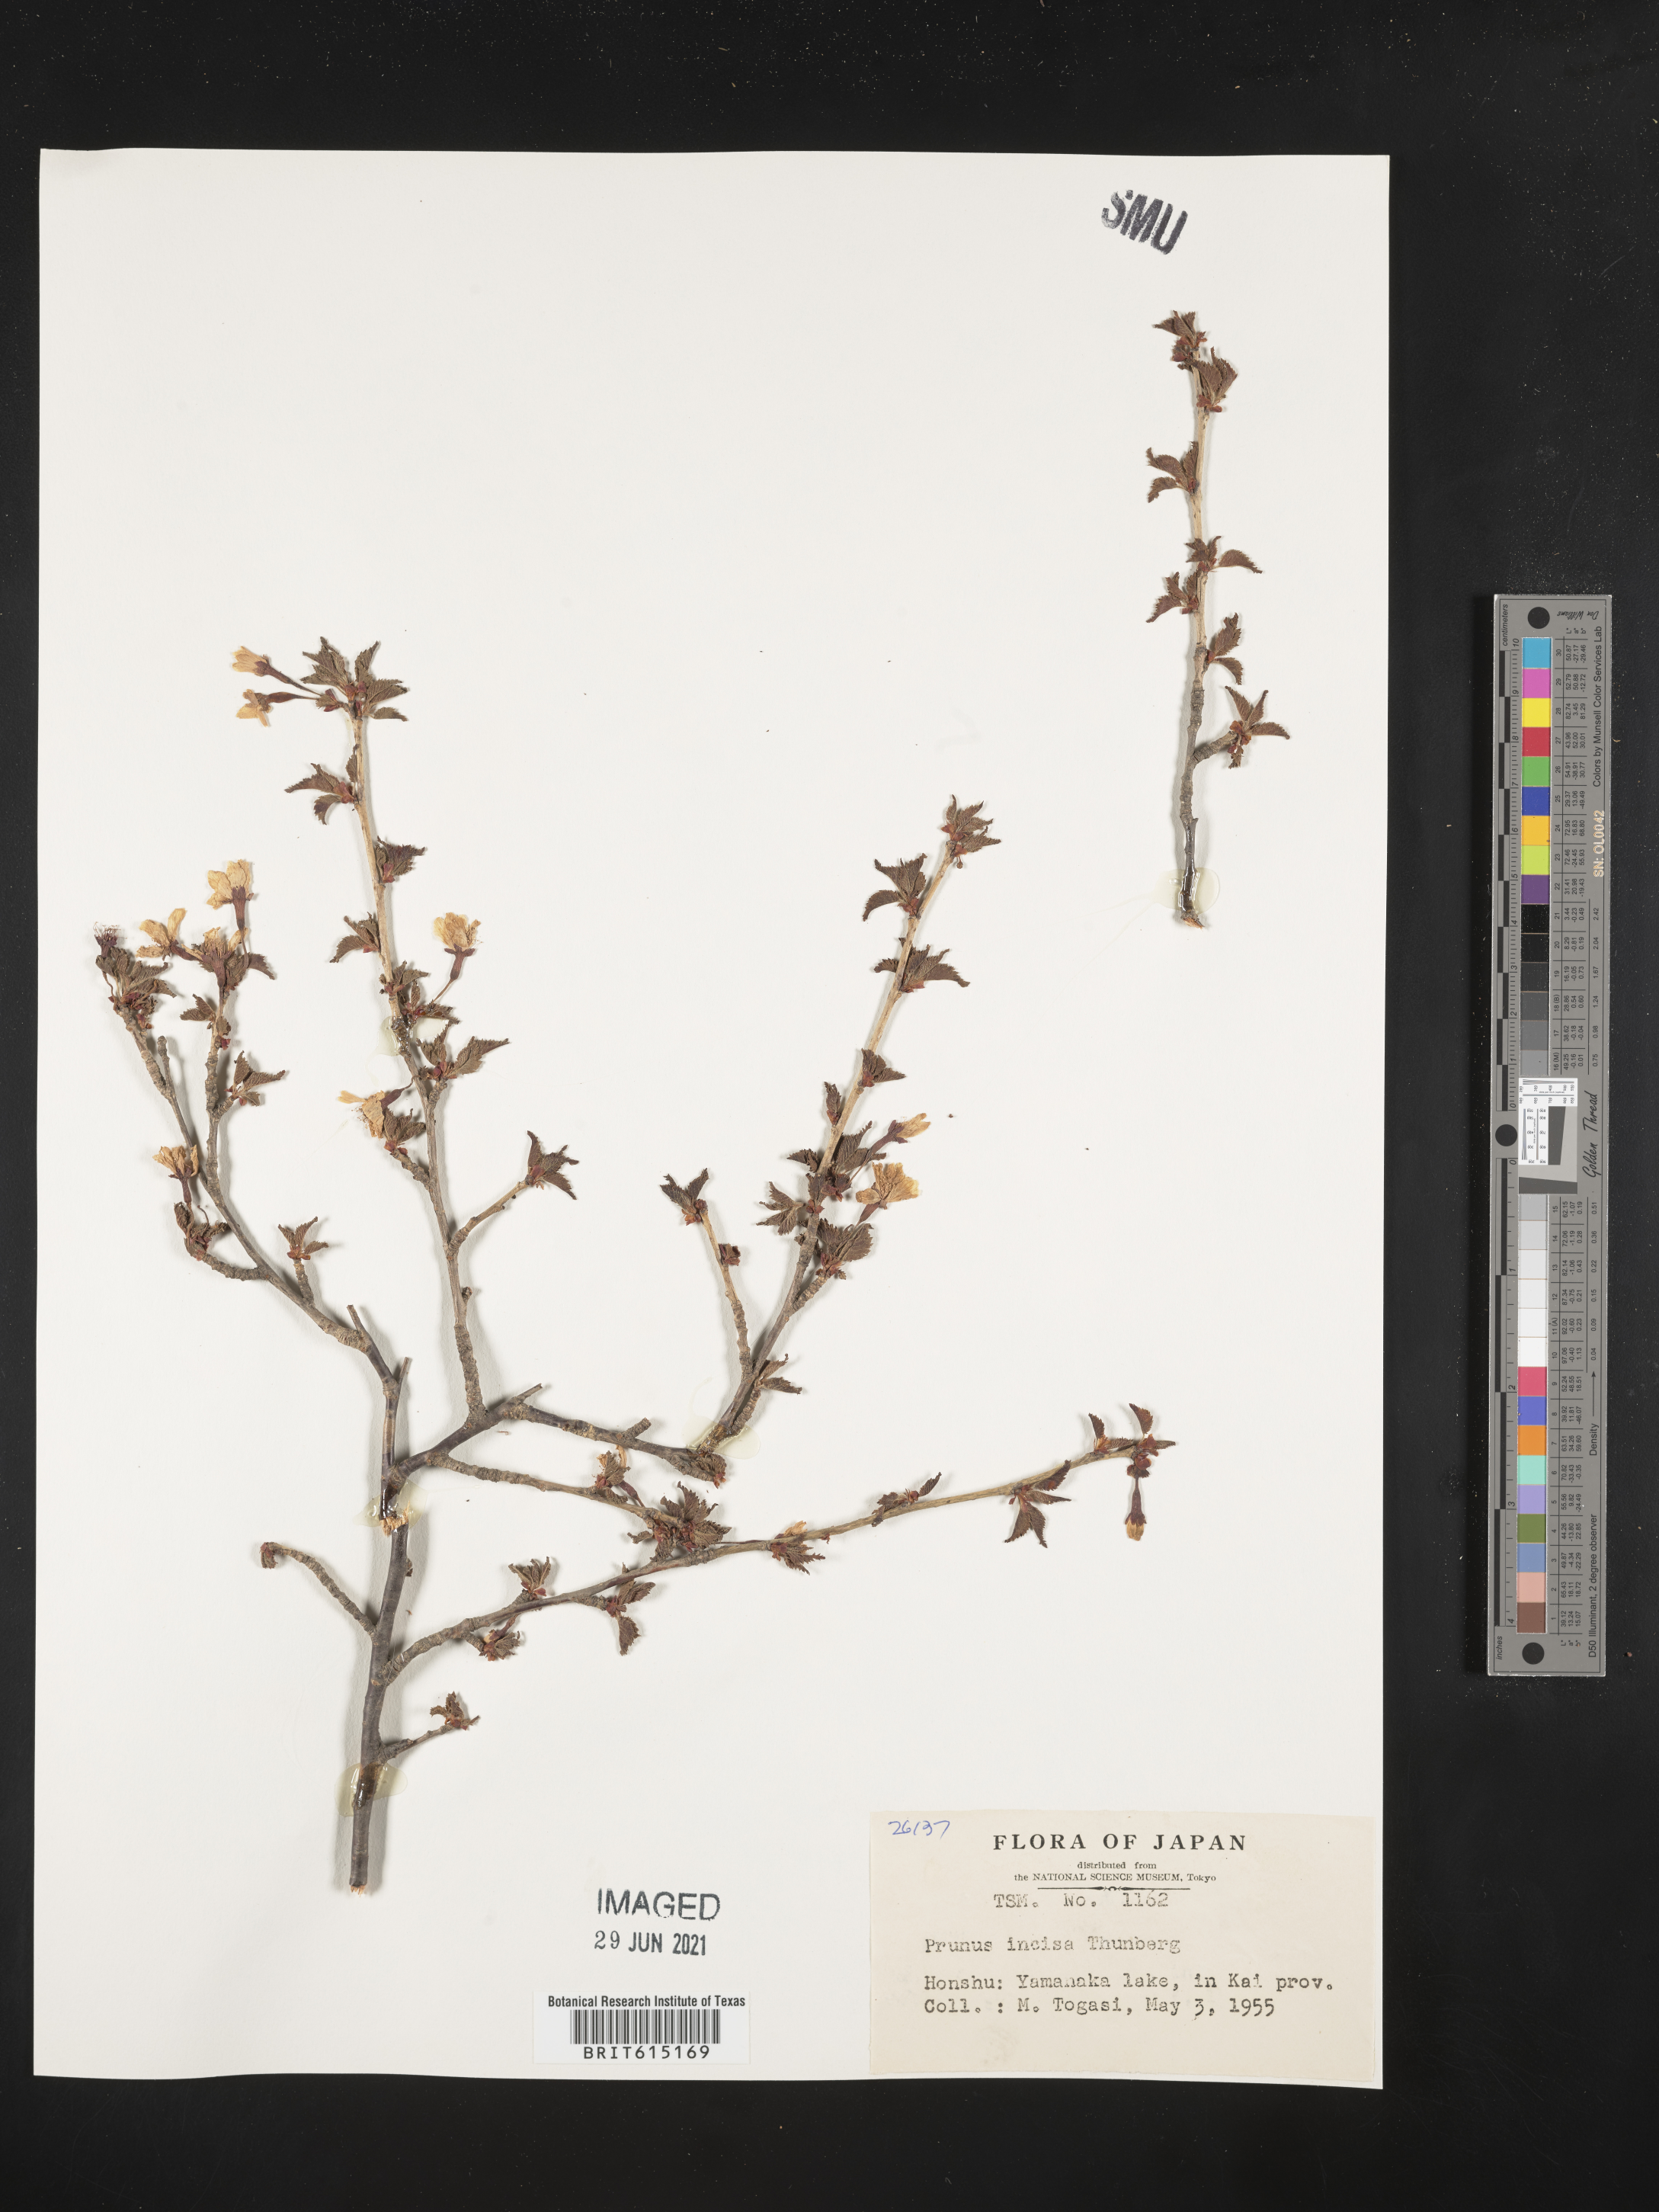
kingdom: Plantae
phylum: Tracheophyta
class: Magnoliopsida
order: Rosales
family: Rosaceae
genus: Prunus
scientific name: Prunus incisa
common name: Fuji cherry
